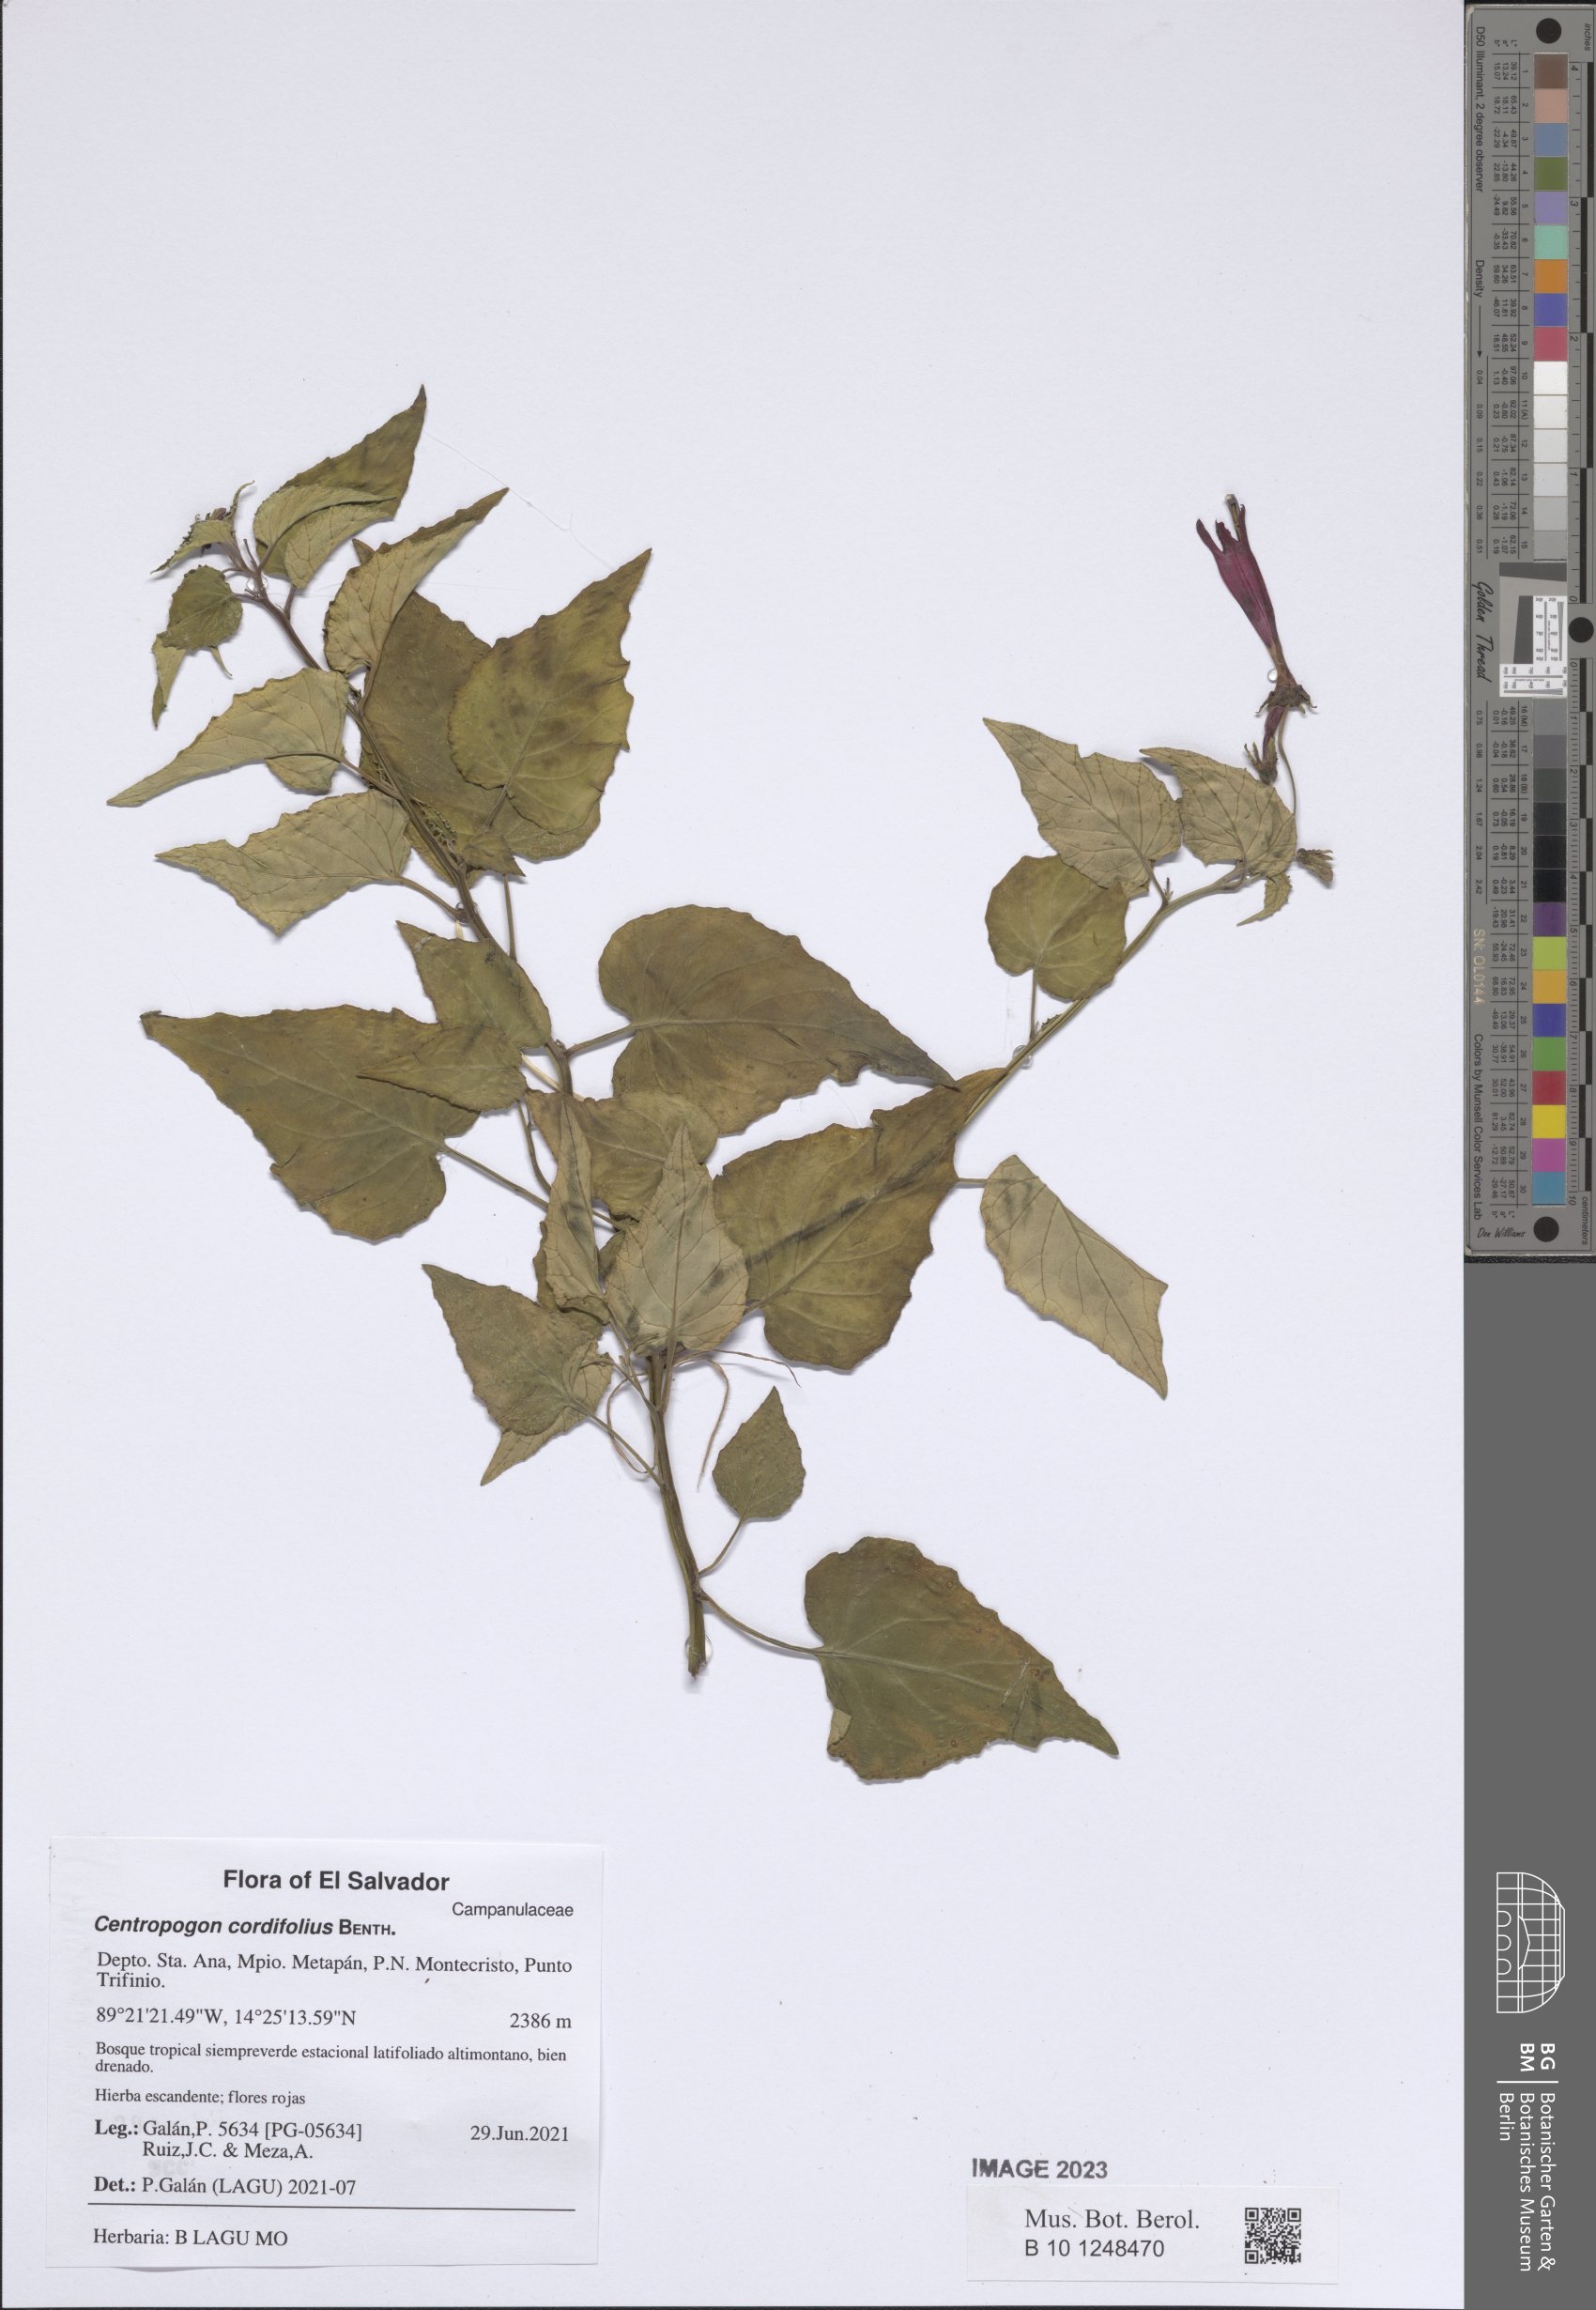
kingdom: Plantae
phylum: Tracheophyta
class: Magnoliopsida
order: Asterales
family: Campanulaceae
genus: Centropogon
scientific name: Centropogon cordifolius
